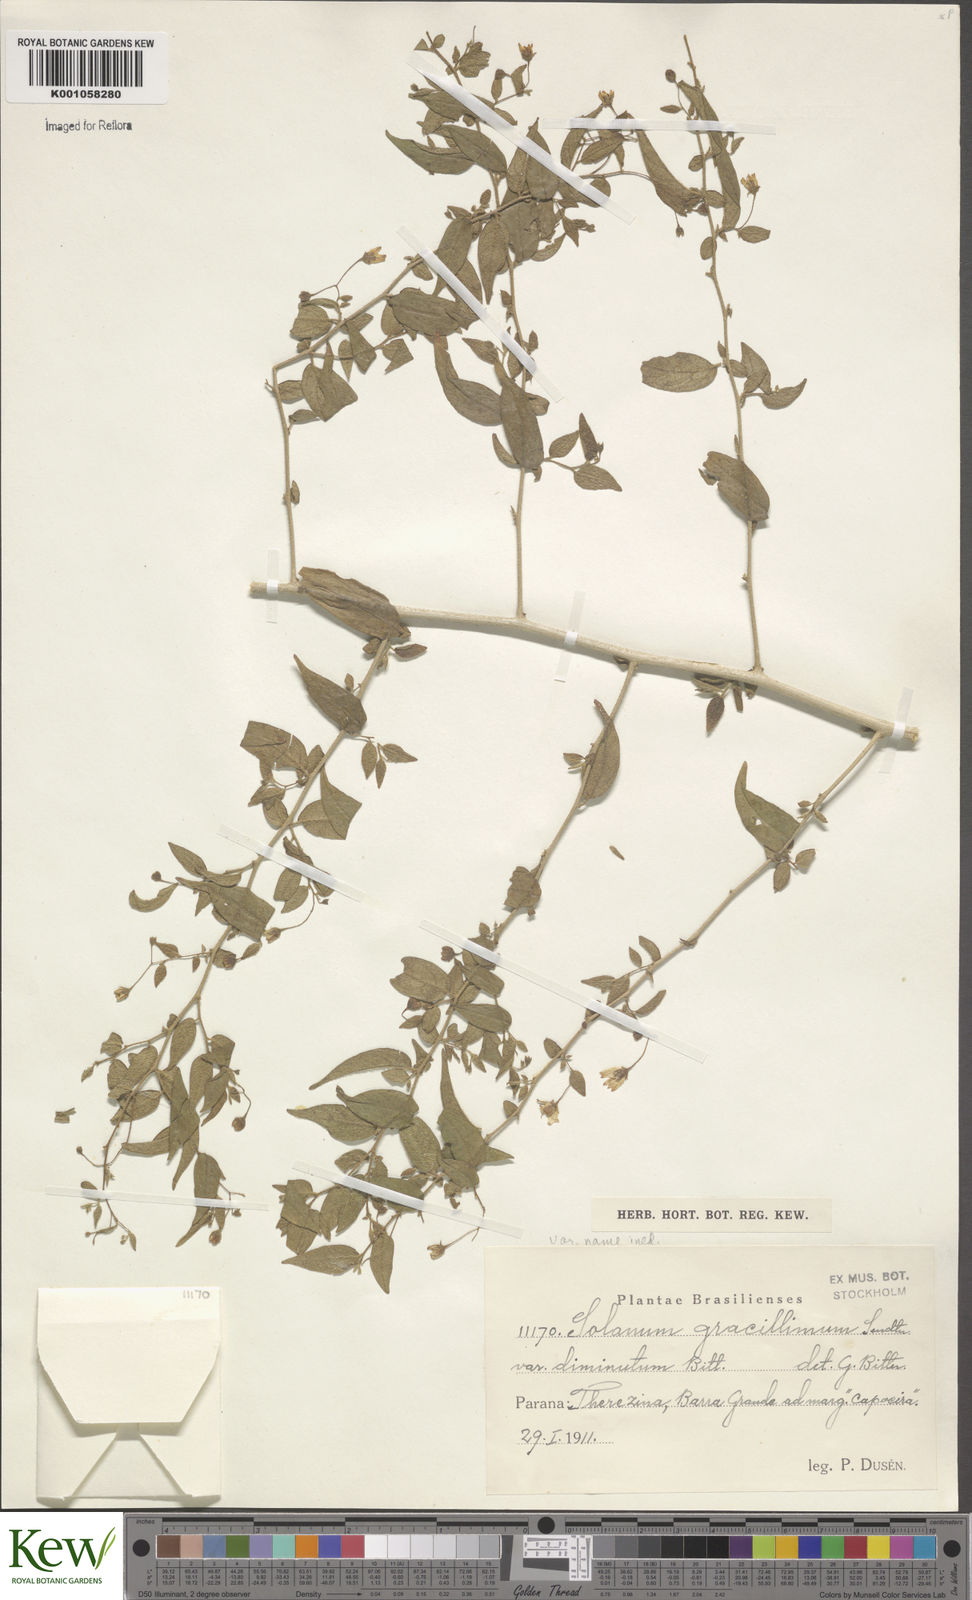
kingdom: Plantae
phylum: Tracheophyta
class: Magnoliopsida
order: Solanales
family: Solanaceae
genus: Solanum
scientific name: Solanum hirtellum
